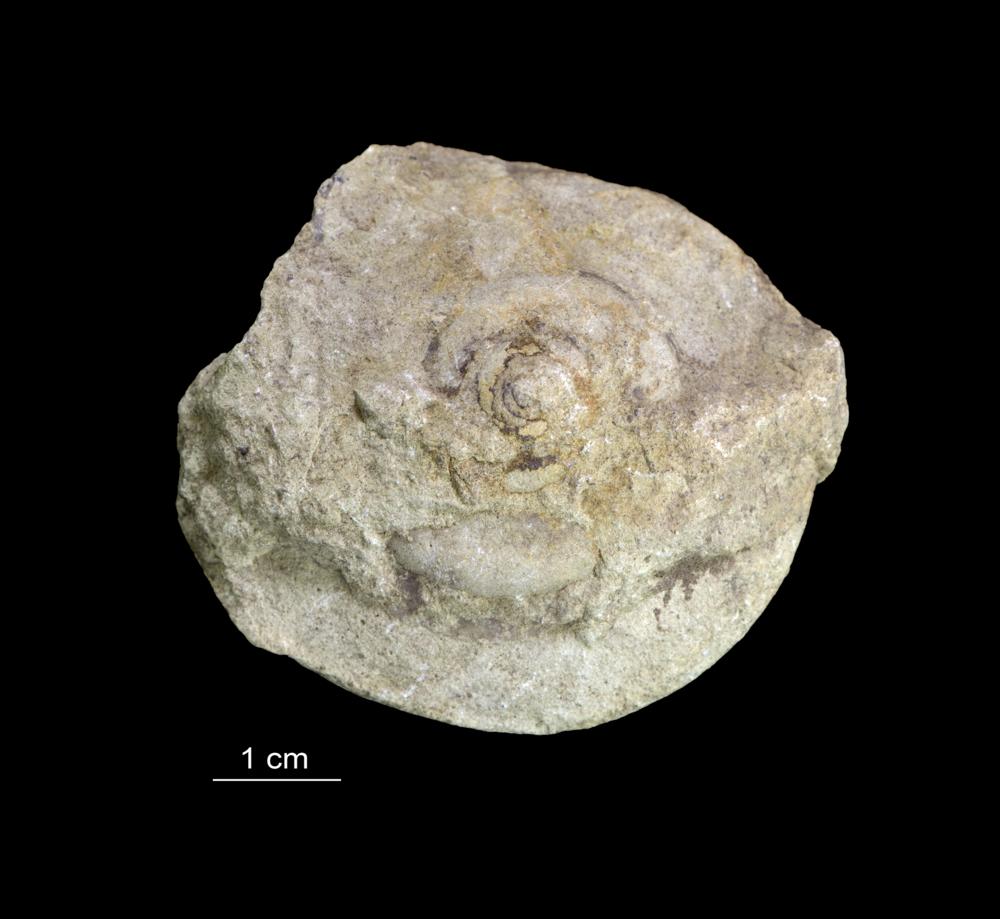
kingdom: Animalia
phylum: Mollusca
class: Gastropoda
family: Lesueurillidae
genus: Pararaphistoma
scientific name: Pararaphistoma Helicites qualteriata
